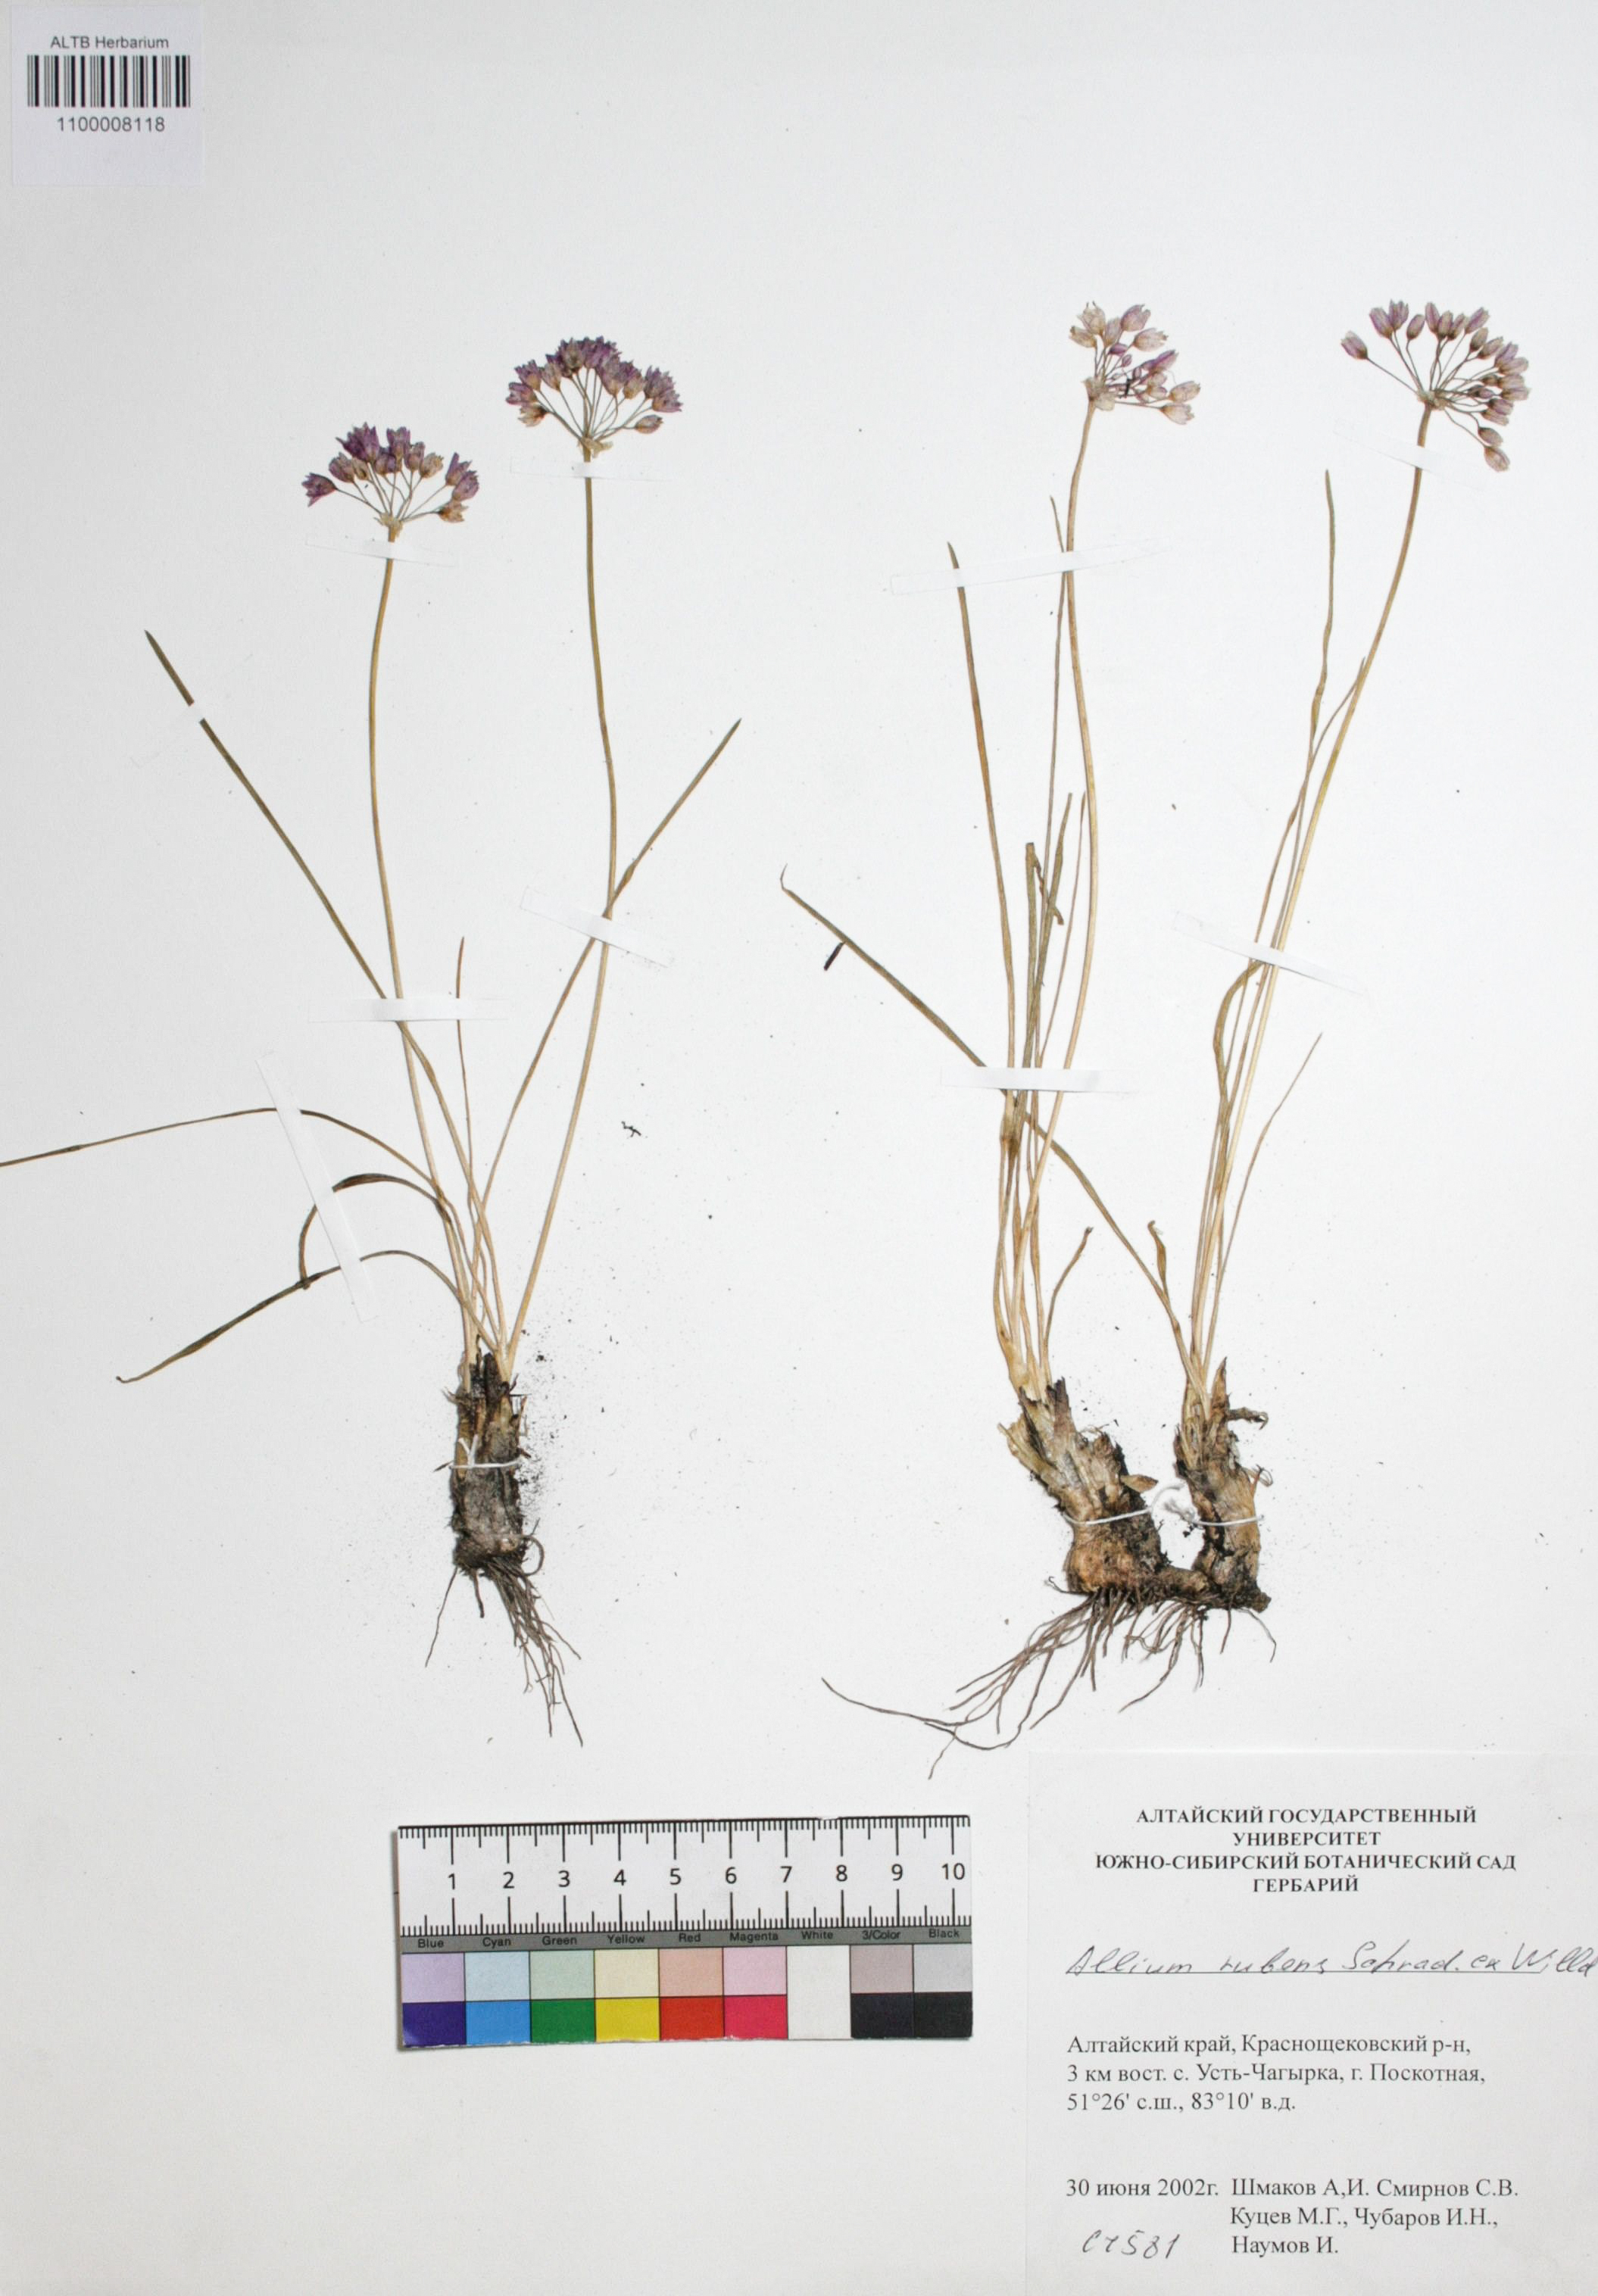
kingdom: Plantae
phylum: Tracheophyta
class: Liliopsida
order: Asparagales
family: Amaryllidaceae
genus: Allium
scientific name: Allium rubens
